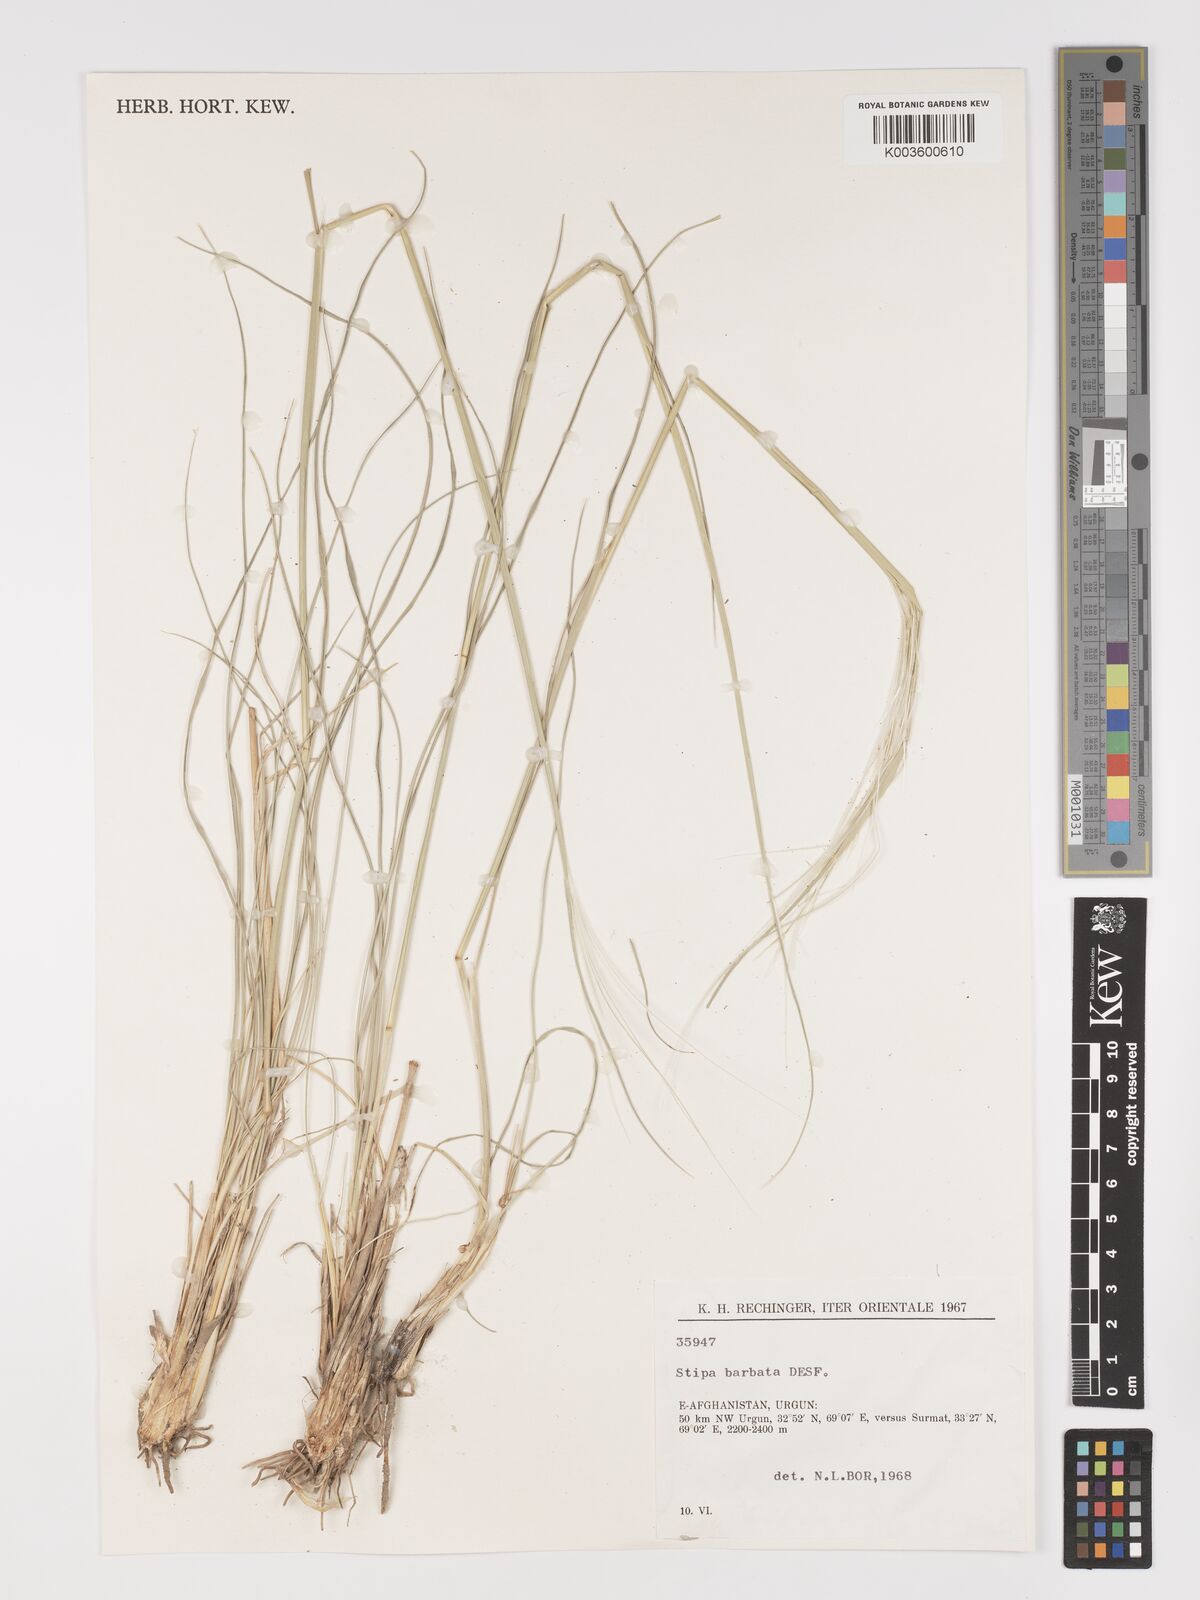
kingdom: Plantae
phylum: Tracheophyta
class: Liliopsida
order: Poales
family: Poaceae
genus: Stipa
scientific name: Stipa barbata
